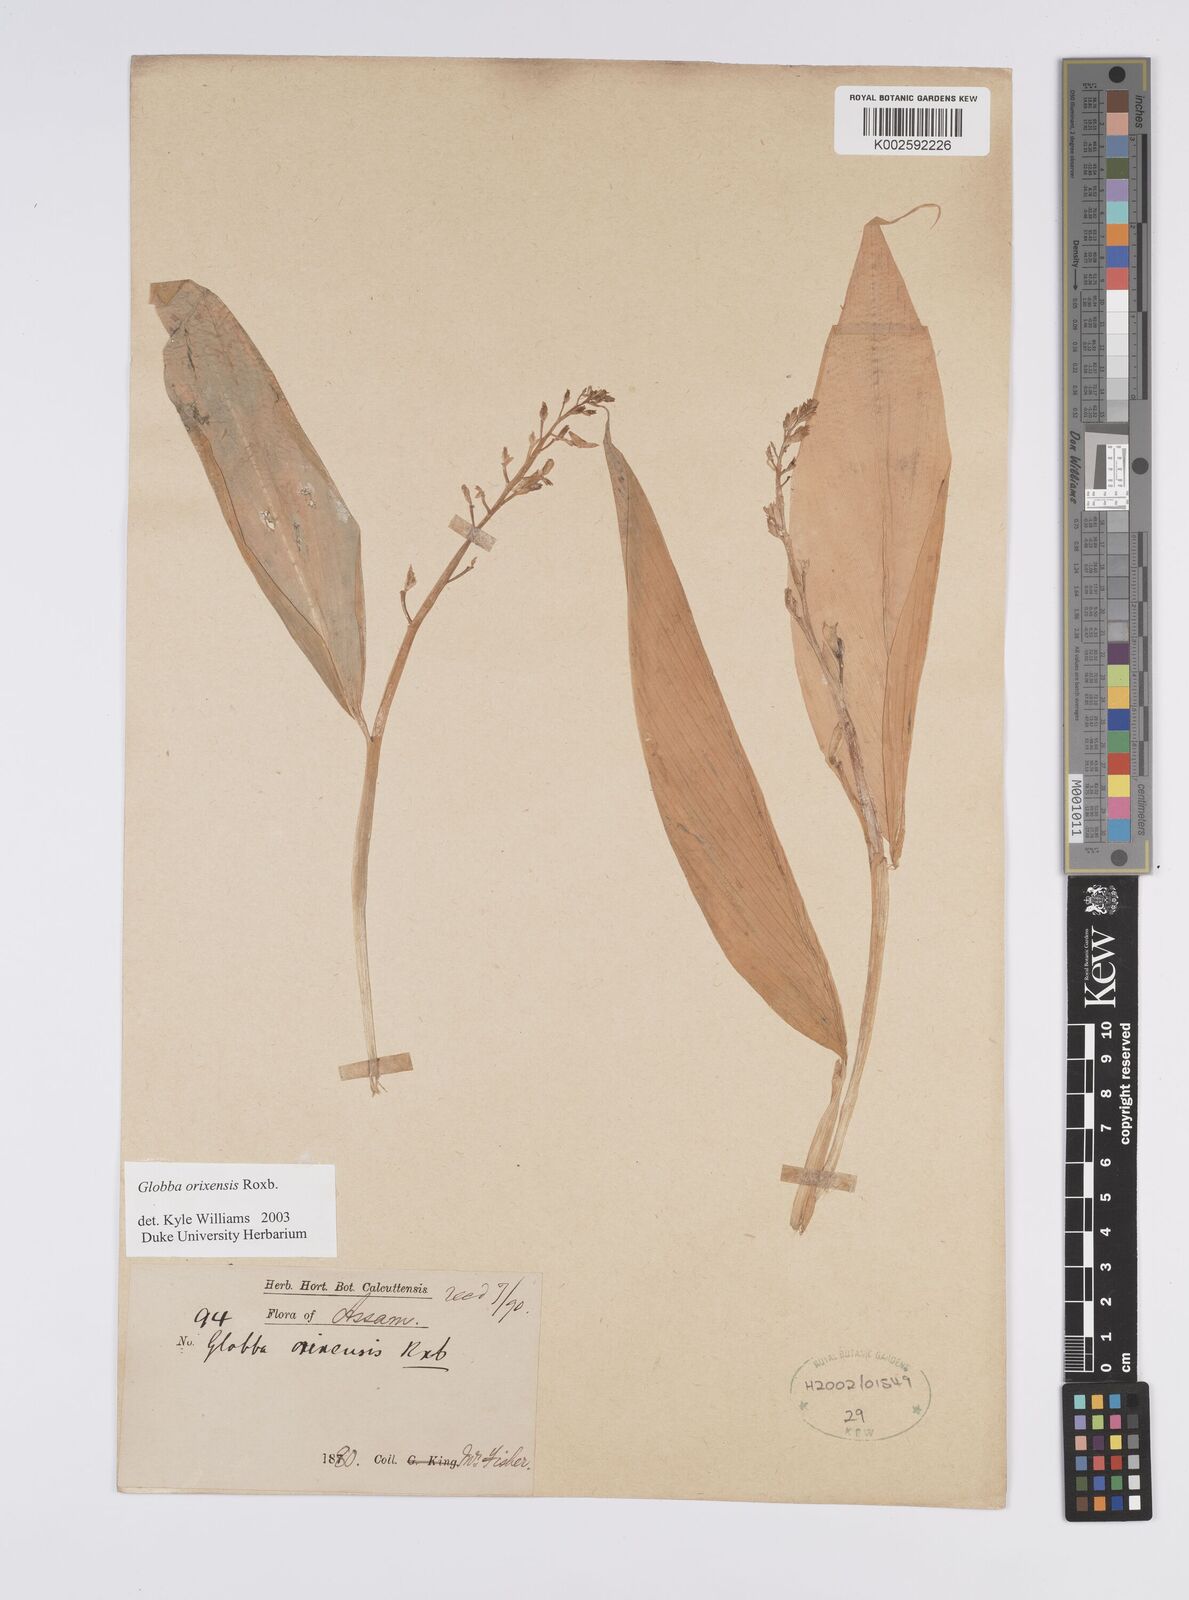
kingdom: Plantae
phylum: Tracheophyta
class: Liliopsida
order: Zingiberales
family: Zingiberaceae
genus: Globba
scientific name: Globba orixensis
